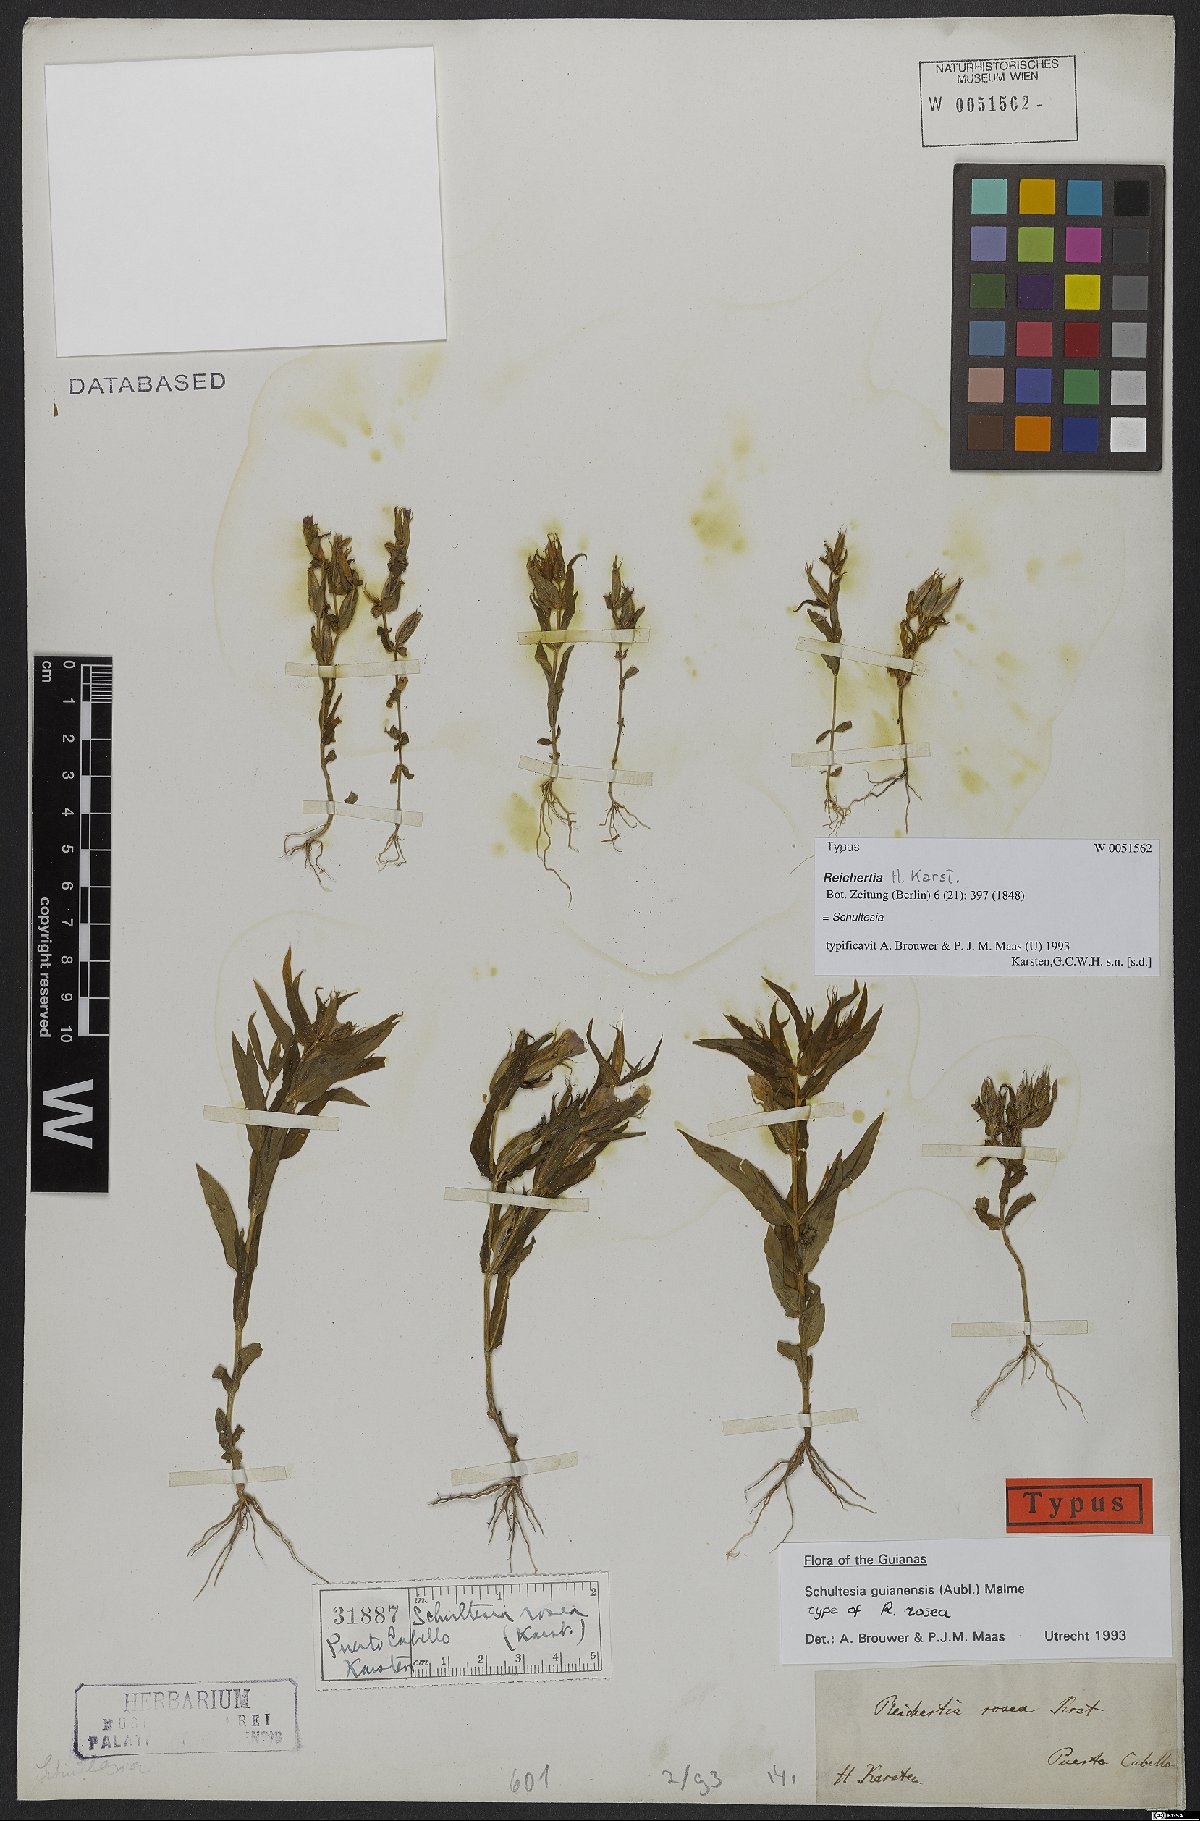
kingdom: Plantae
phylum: Tracheophyta
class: Magnoliopsida
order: Gentianales
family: Gentianaceae
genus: Schultesia
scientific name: Schultesia guianensis
